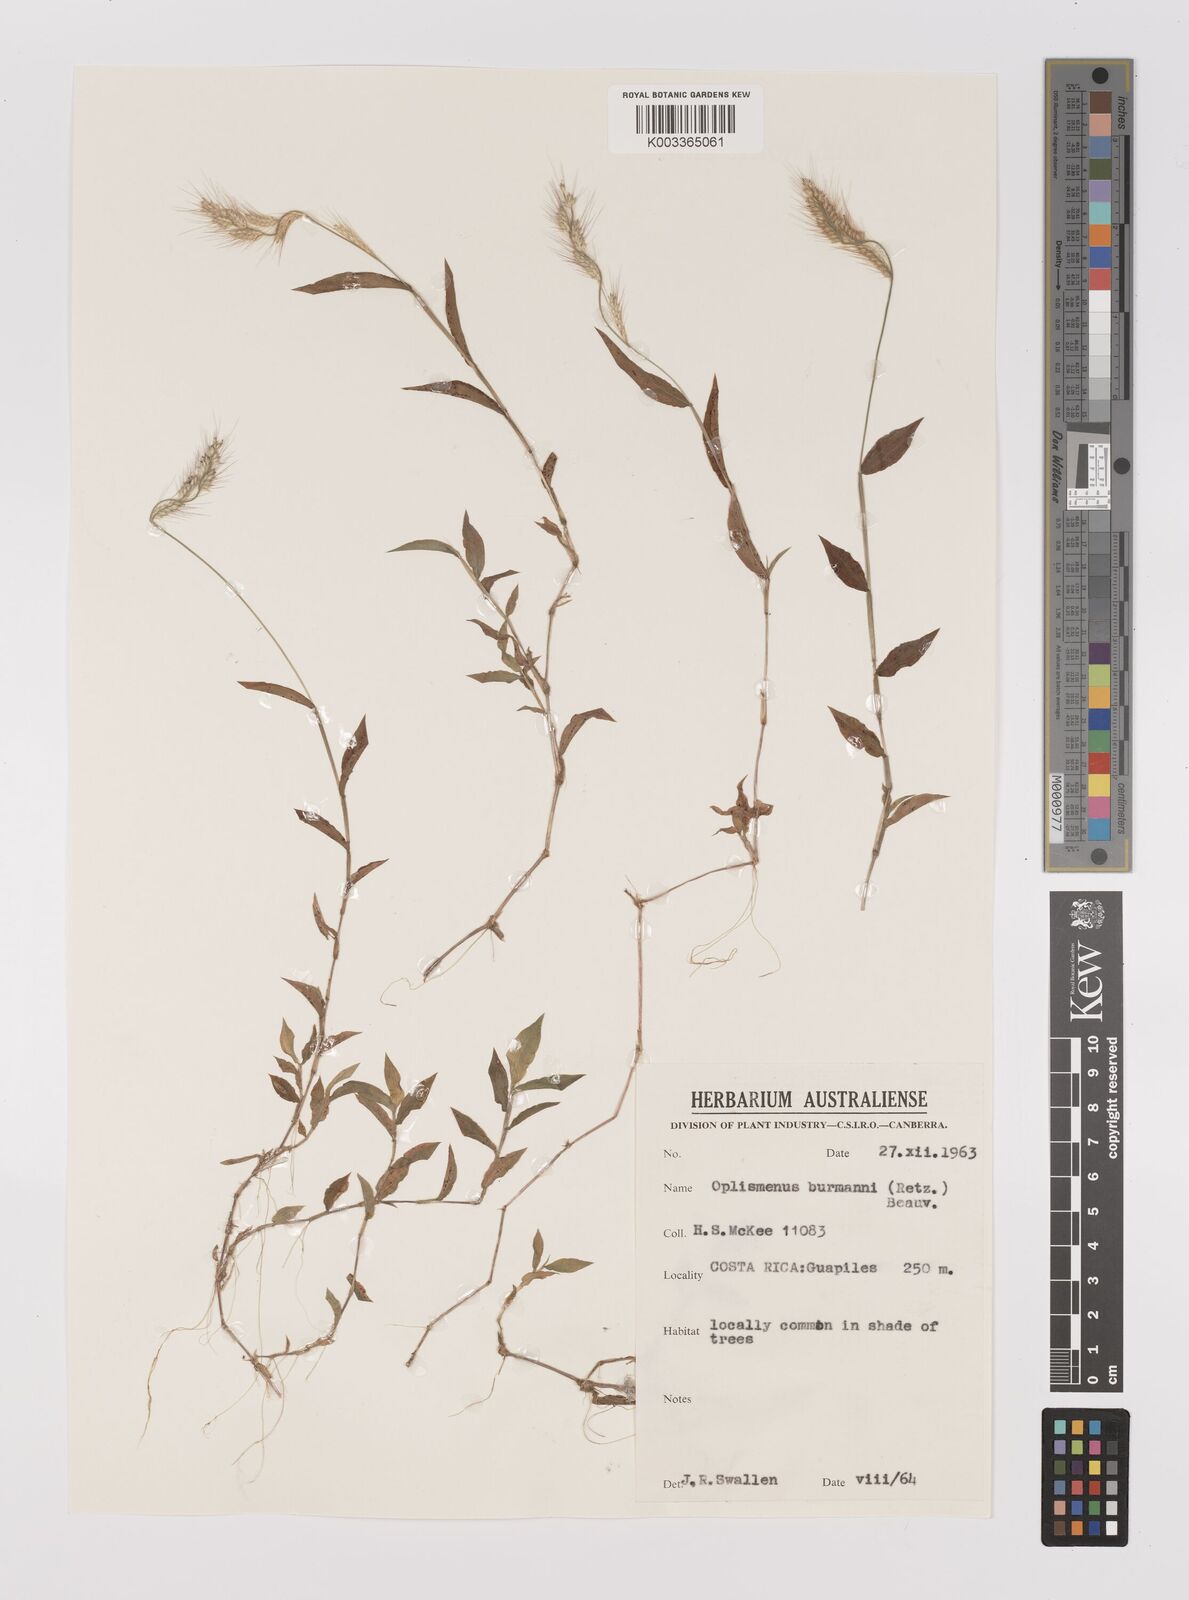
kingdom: Plantae
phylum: Tracheophyta
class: Liliopsida
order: Poales
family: Poaceae
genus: Oplismenus
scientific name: Oplismenus burmanni
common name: Burmann's basketgrass
